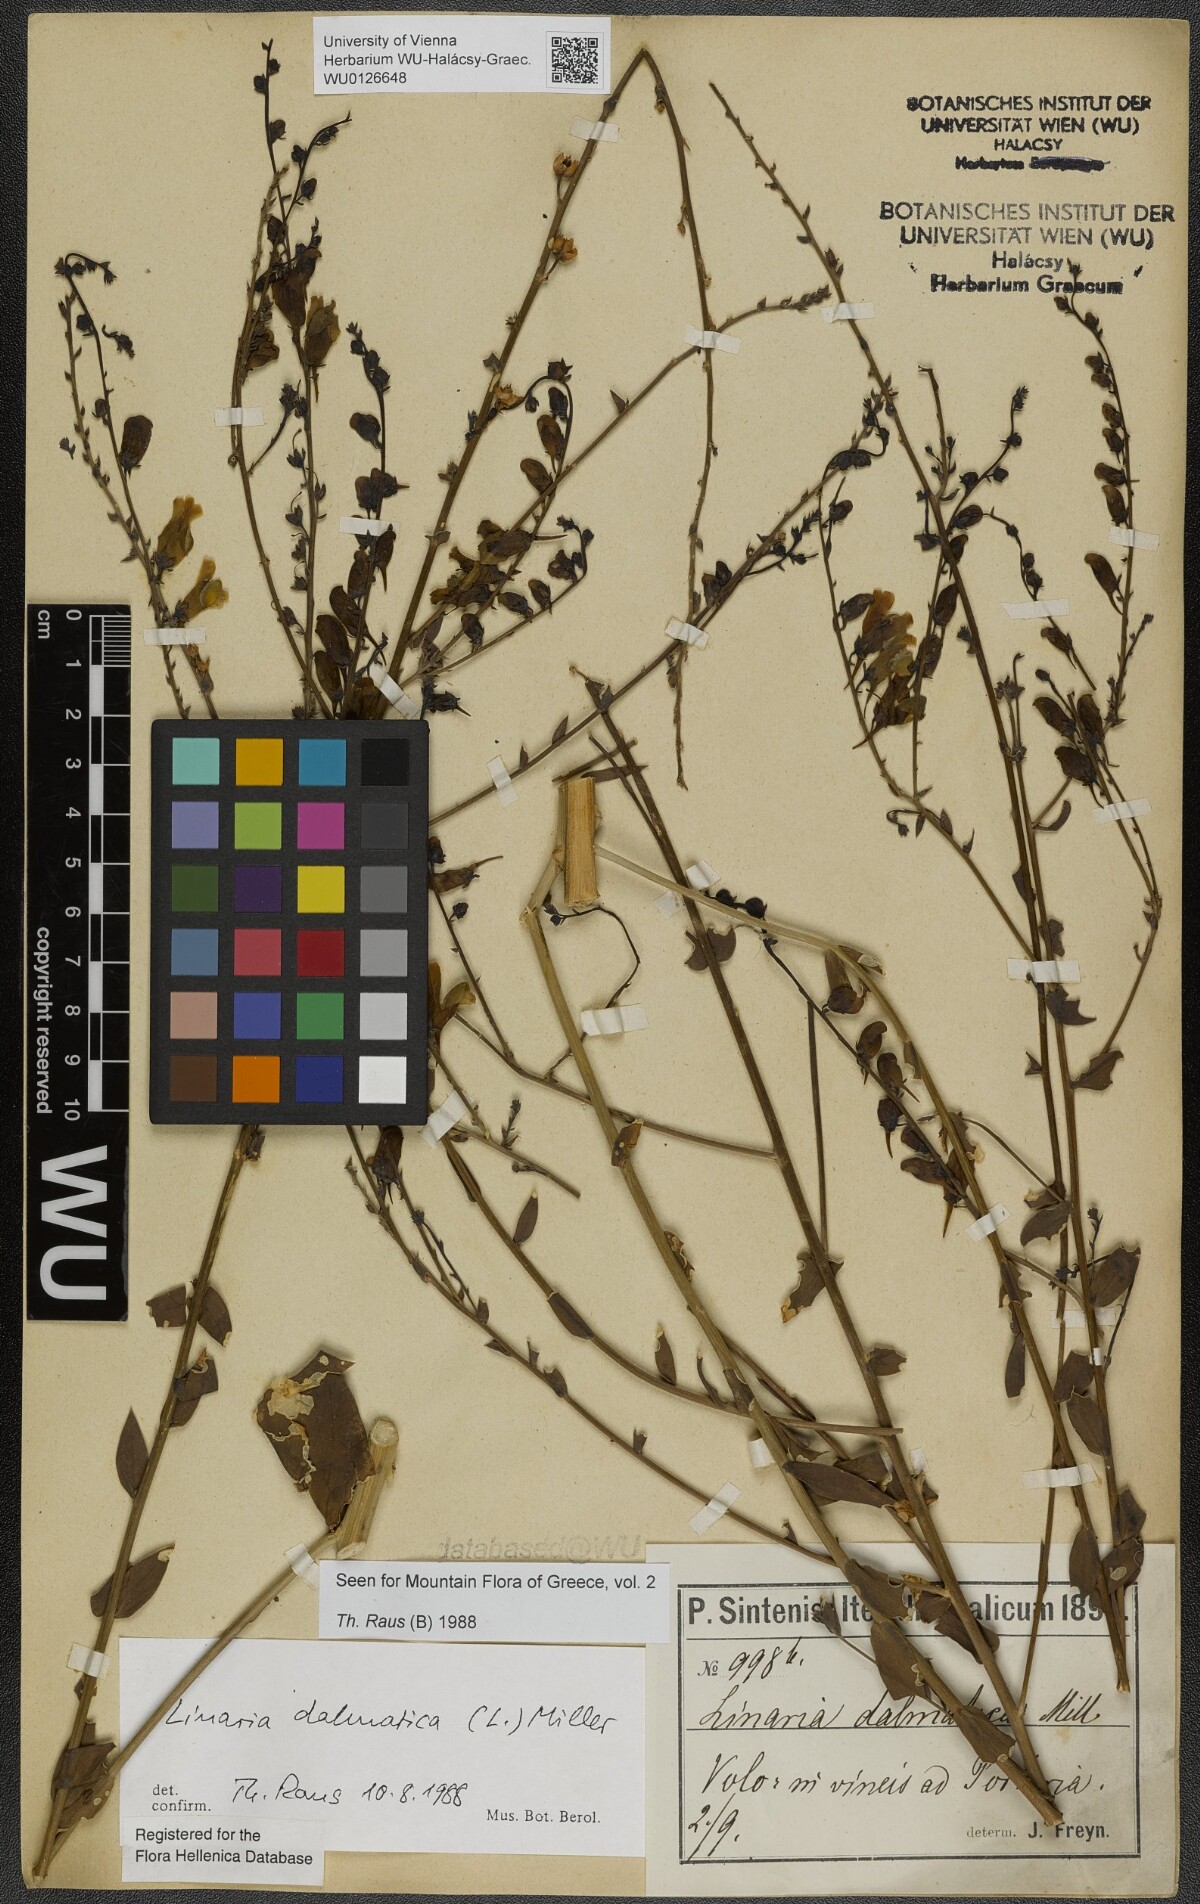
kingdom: Plantae
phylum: Tracheophyta
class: Magnoliopsida
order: Lamiales
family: Plantaginaceae
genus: Linaria
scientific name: Linaria dalmatica
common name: Dalmatian toadflax
